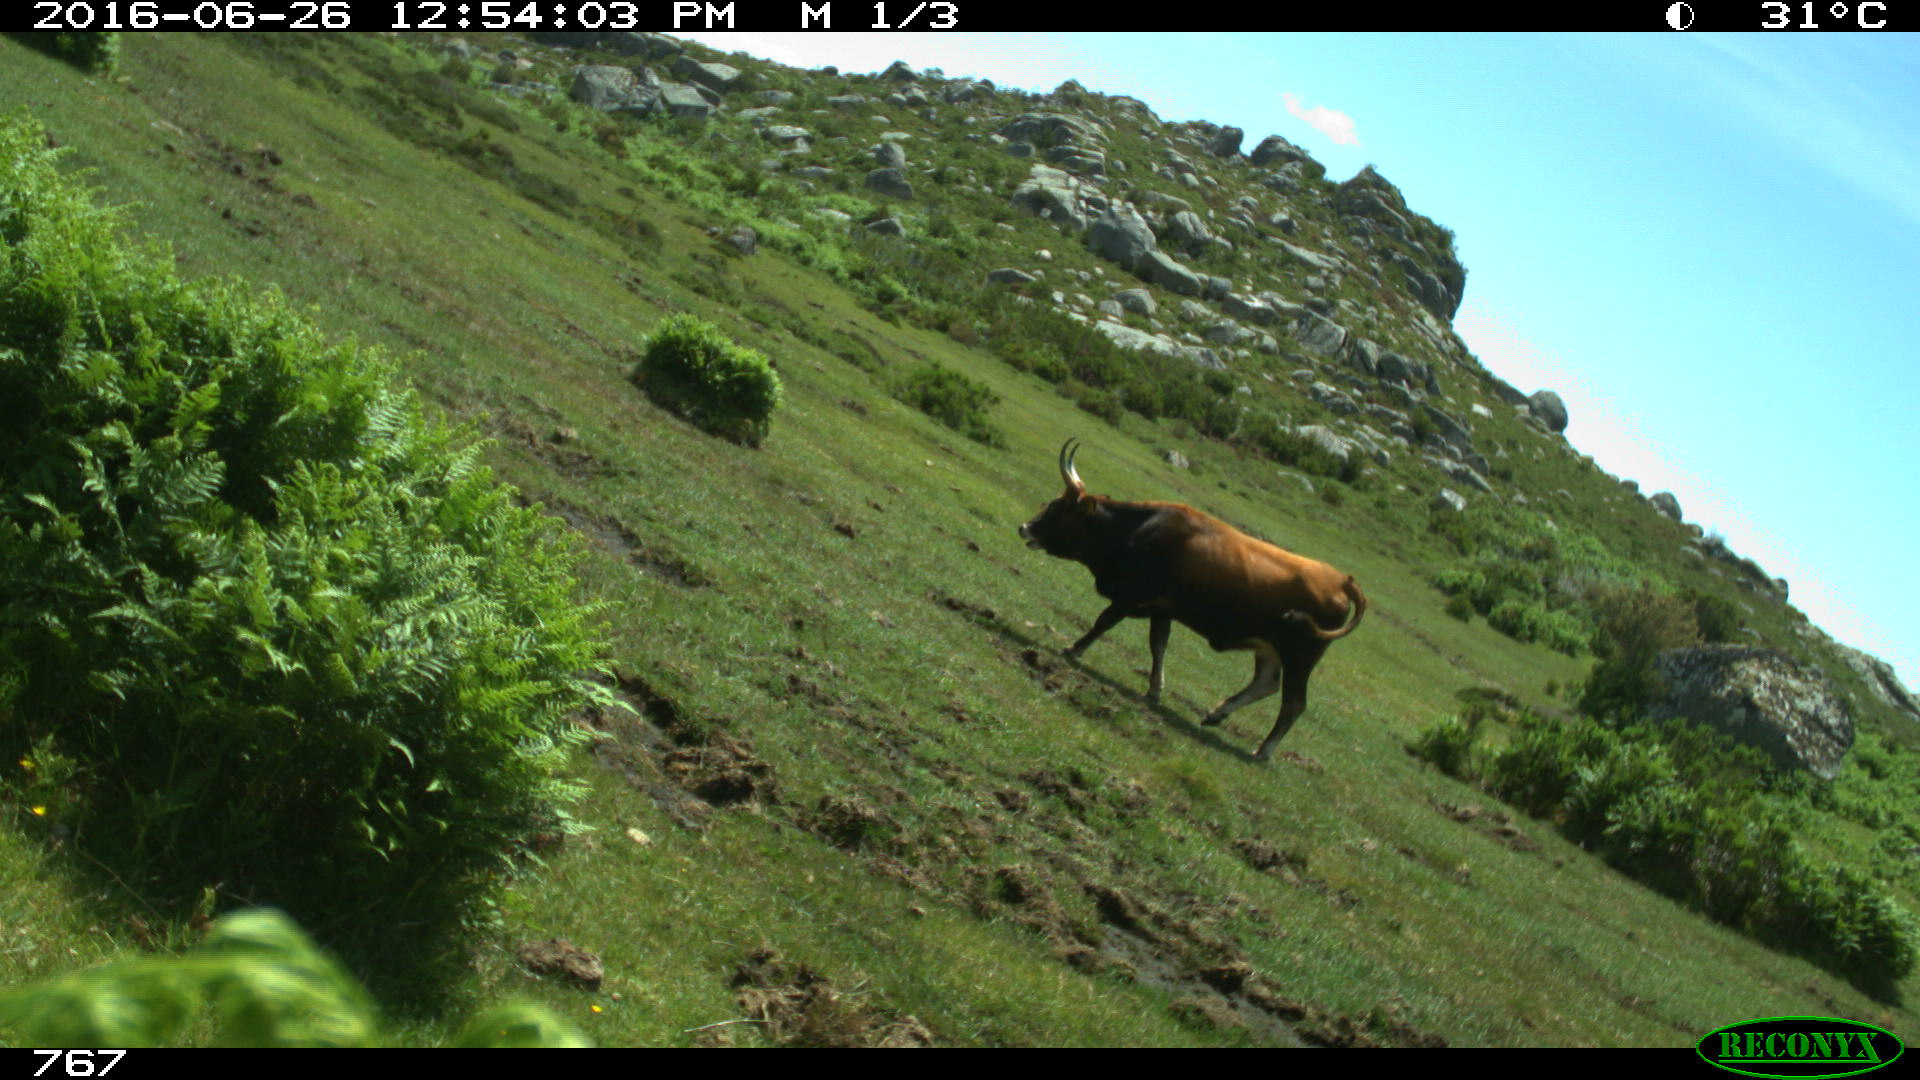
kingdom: Animalia
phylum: Chordata
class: Mammalia
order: Artiodactyla
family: Bovidae
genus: Bos
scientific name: Bos taurus
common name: Domesticated cattle
